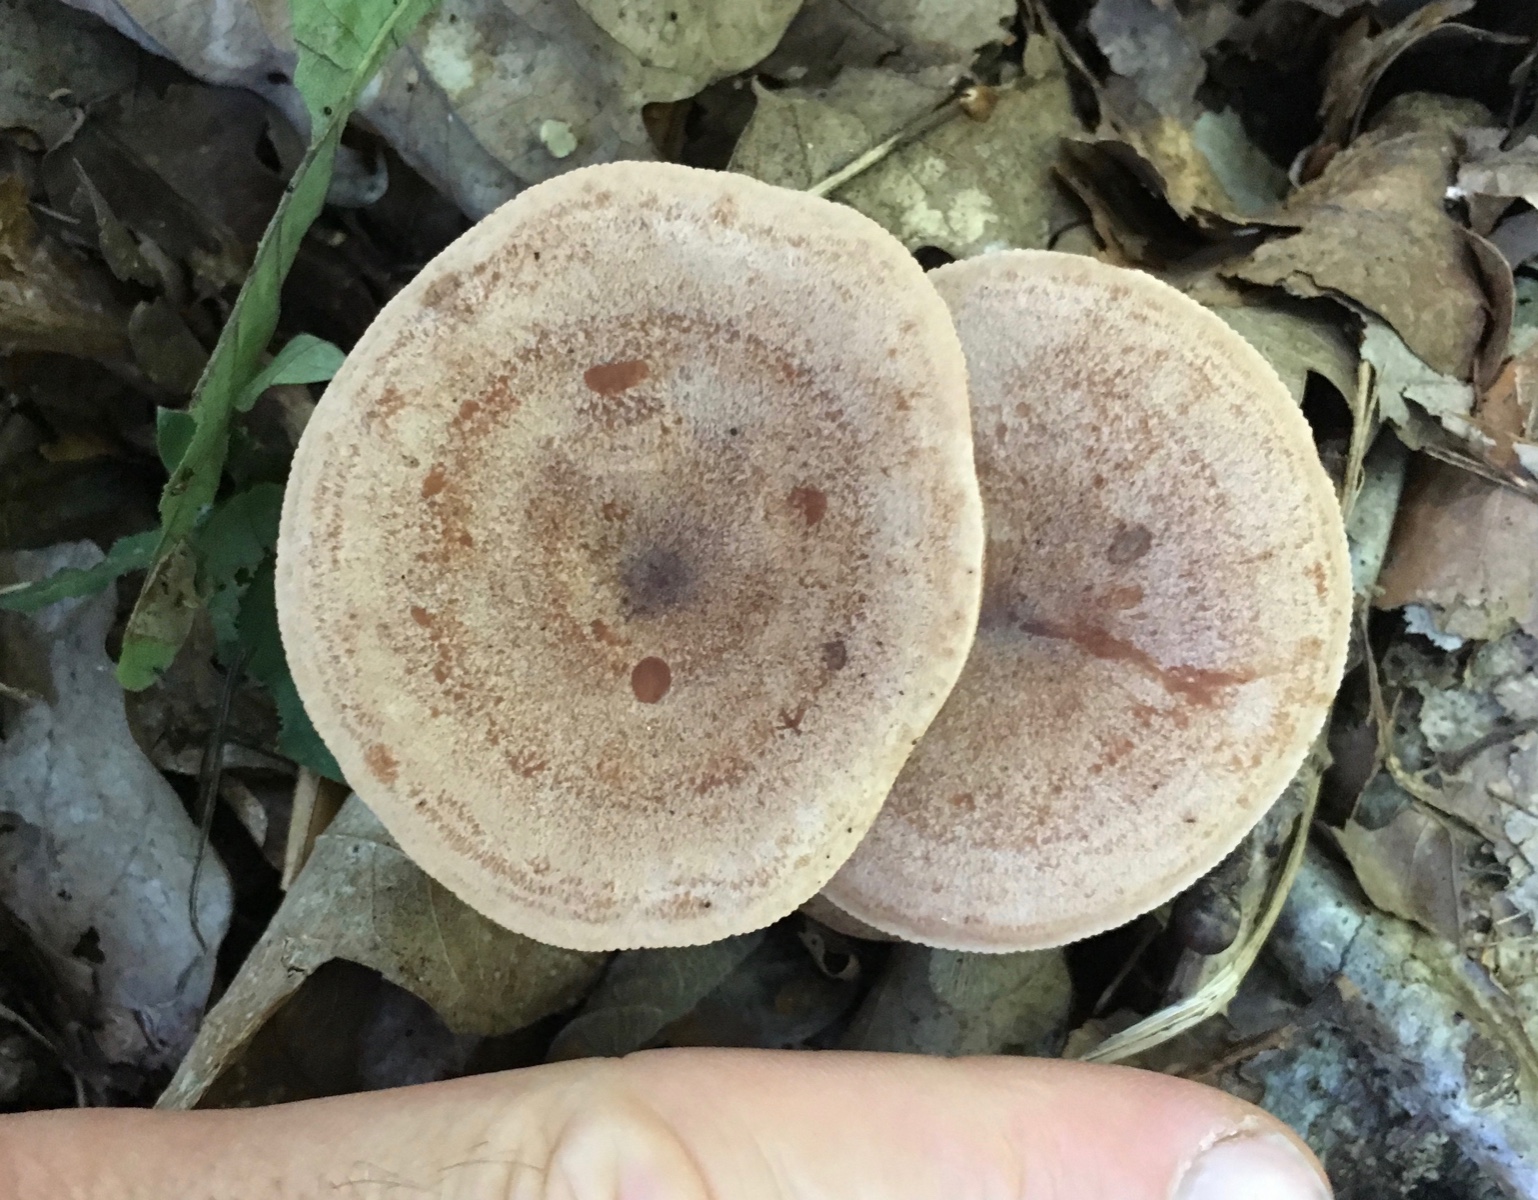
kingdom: Fungi
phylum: Basidiomycota
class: Agaricomycetes
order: Russulales
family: Russulaceae
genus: Lactarius
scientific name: Lactarius quietus
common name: ege-mælkehat
